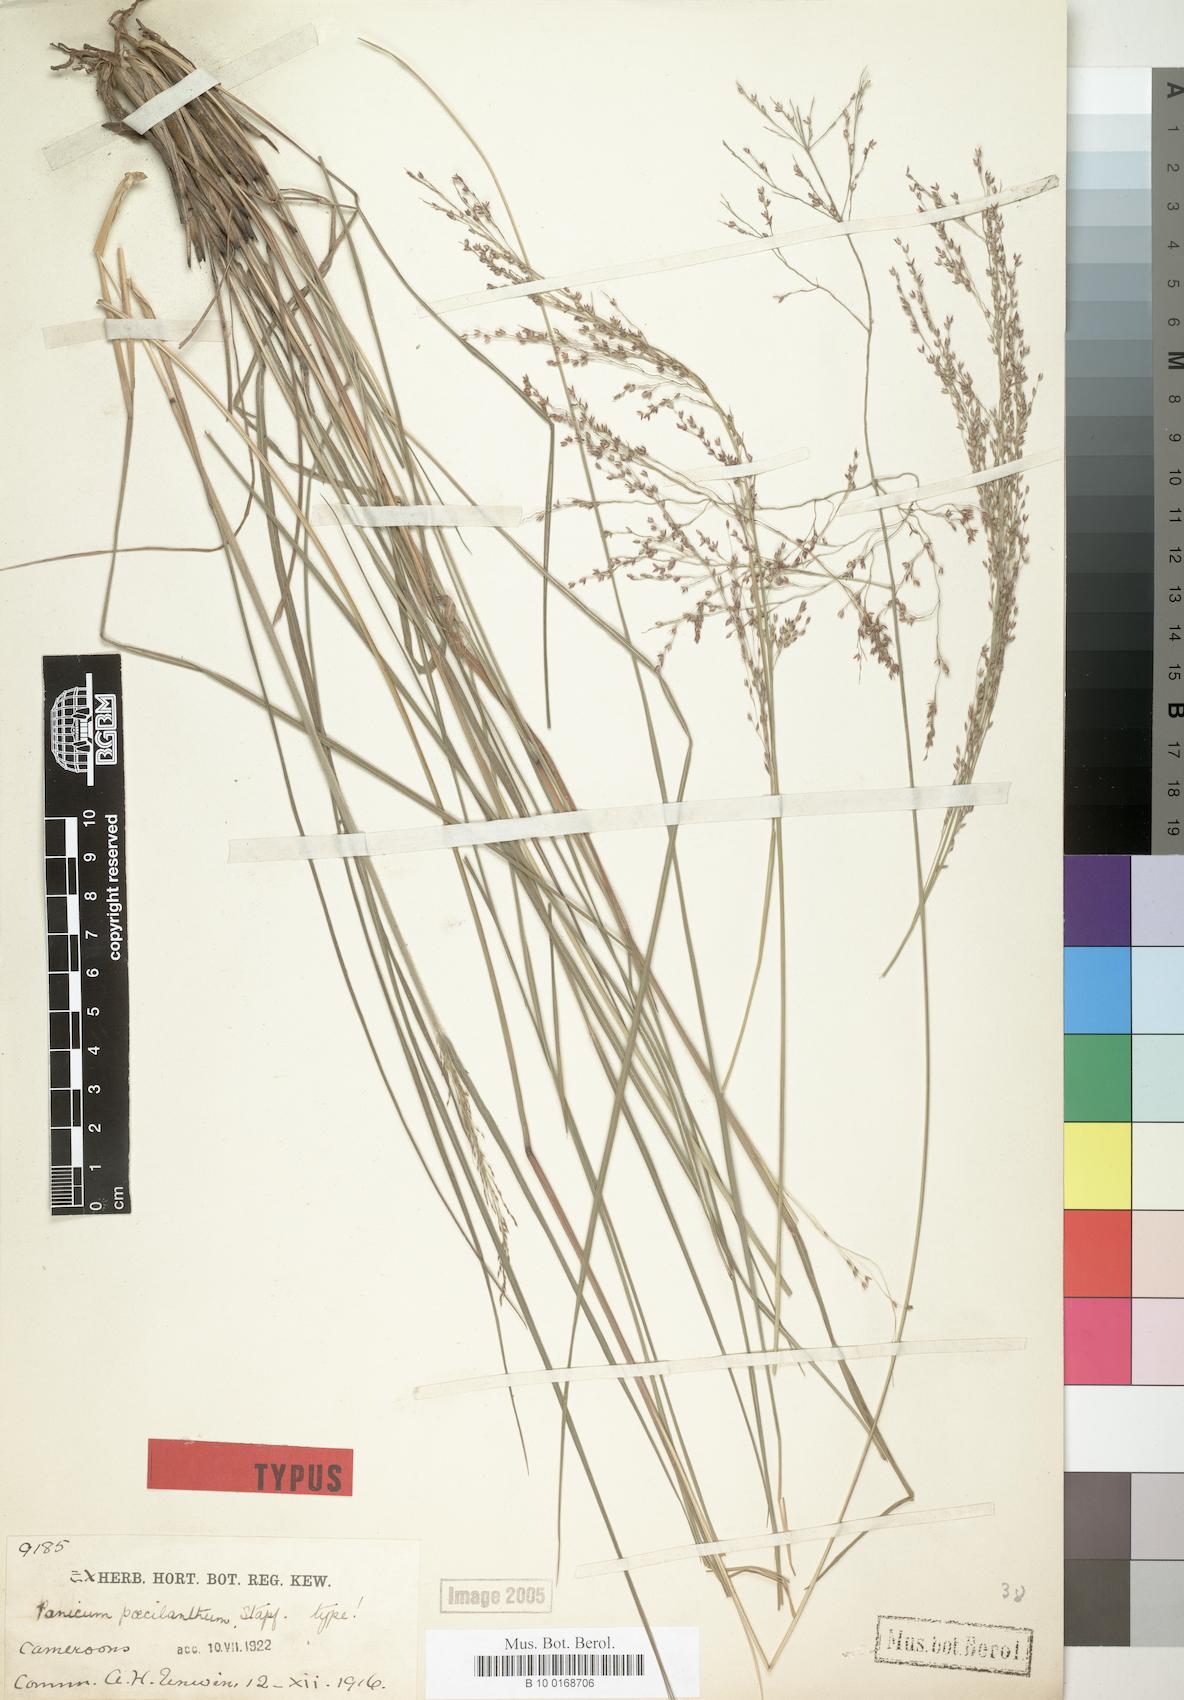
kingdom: Plantae
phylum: Tracheophyta
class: Liliopsida
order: Poales
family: Poaceae
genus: Panicum
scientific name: Panicum dregeanum
